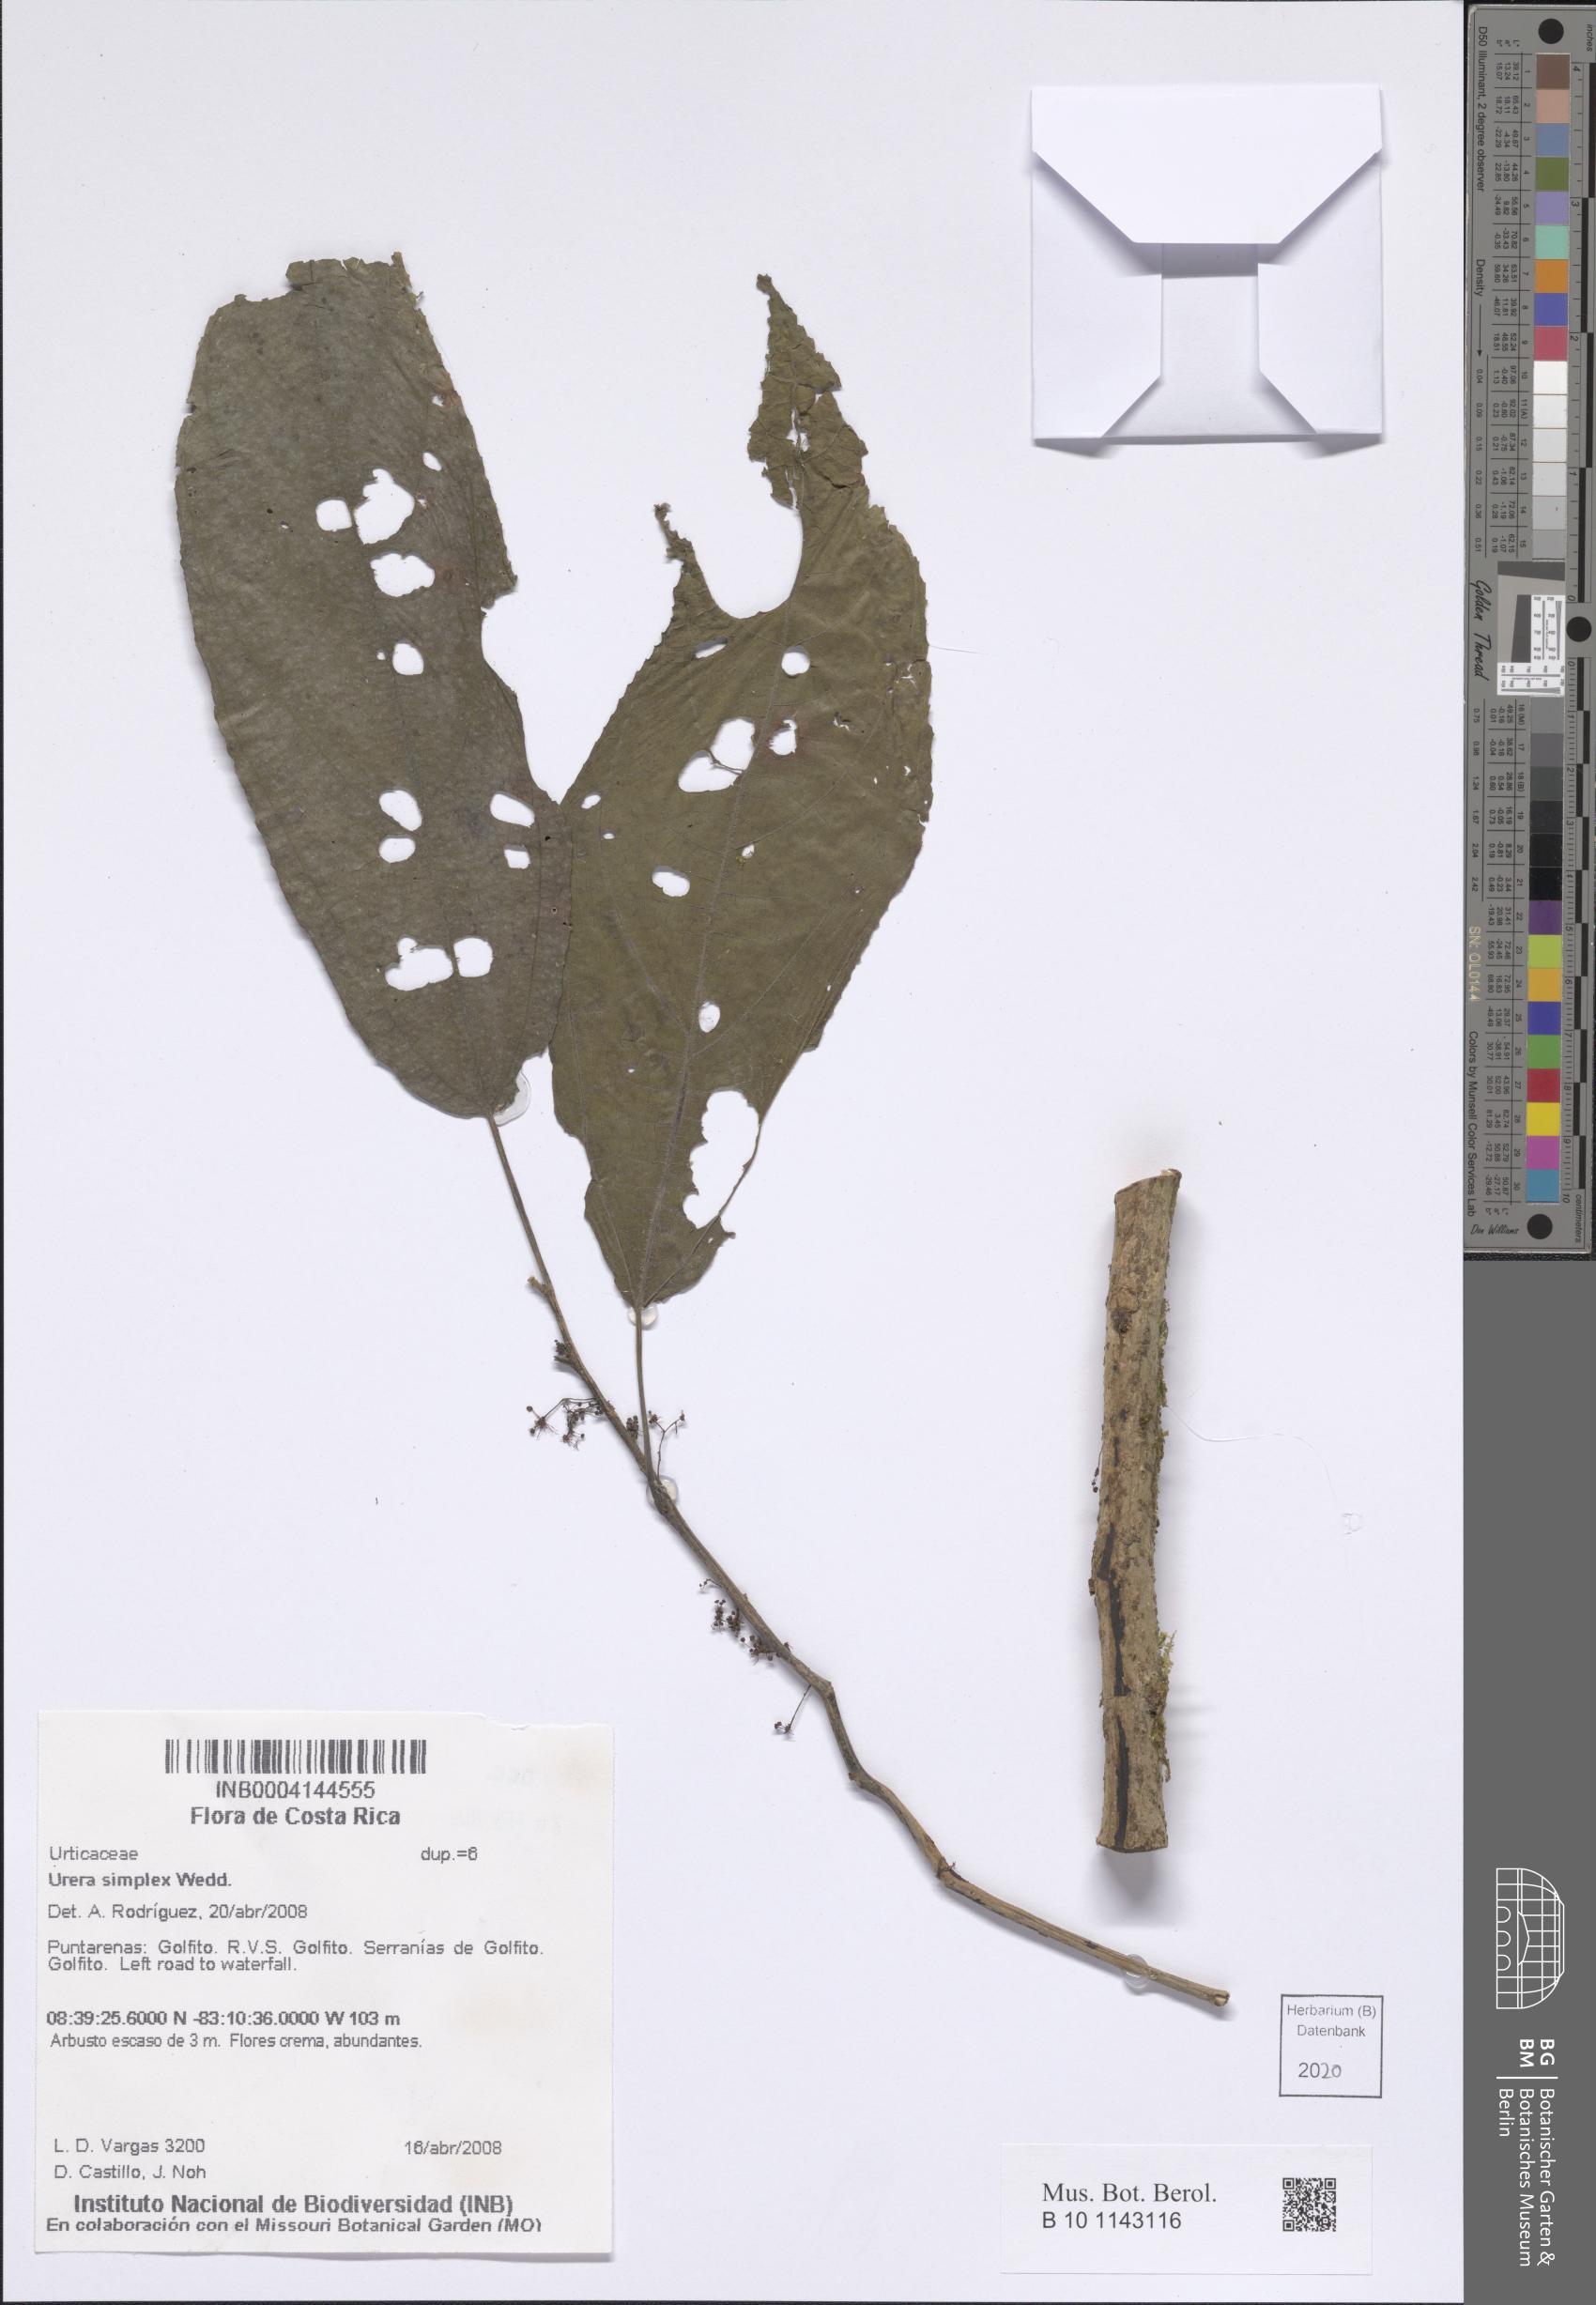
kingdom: Plantae
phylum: Tracheophyta
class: Magnoliopsida
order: Rosales
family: Urticaceae
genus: Urera
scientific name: Urera simplex
